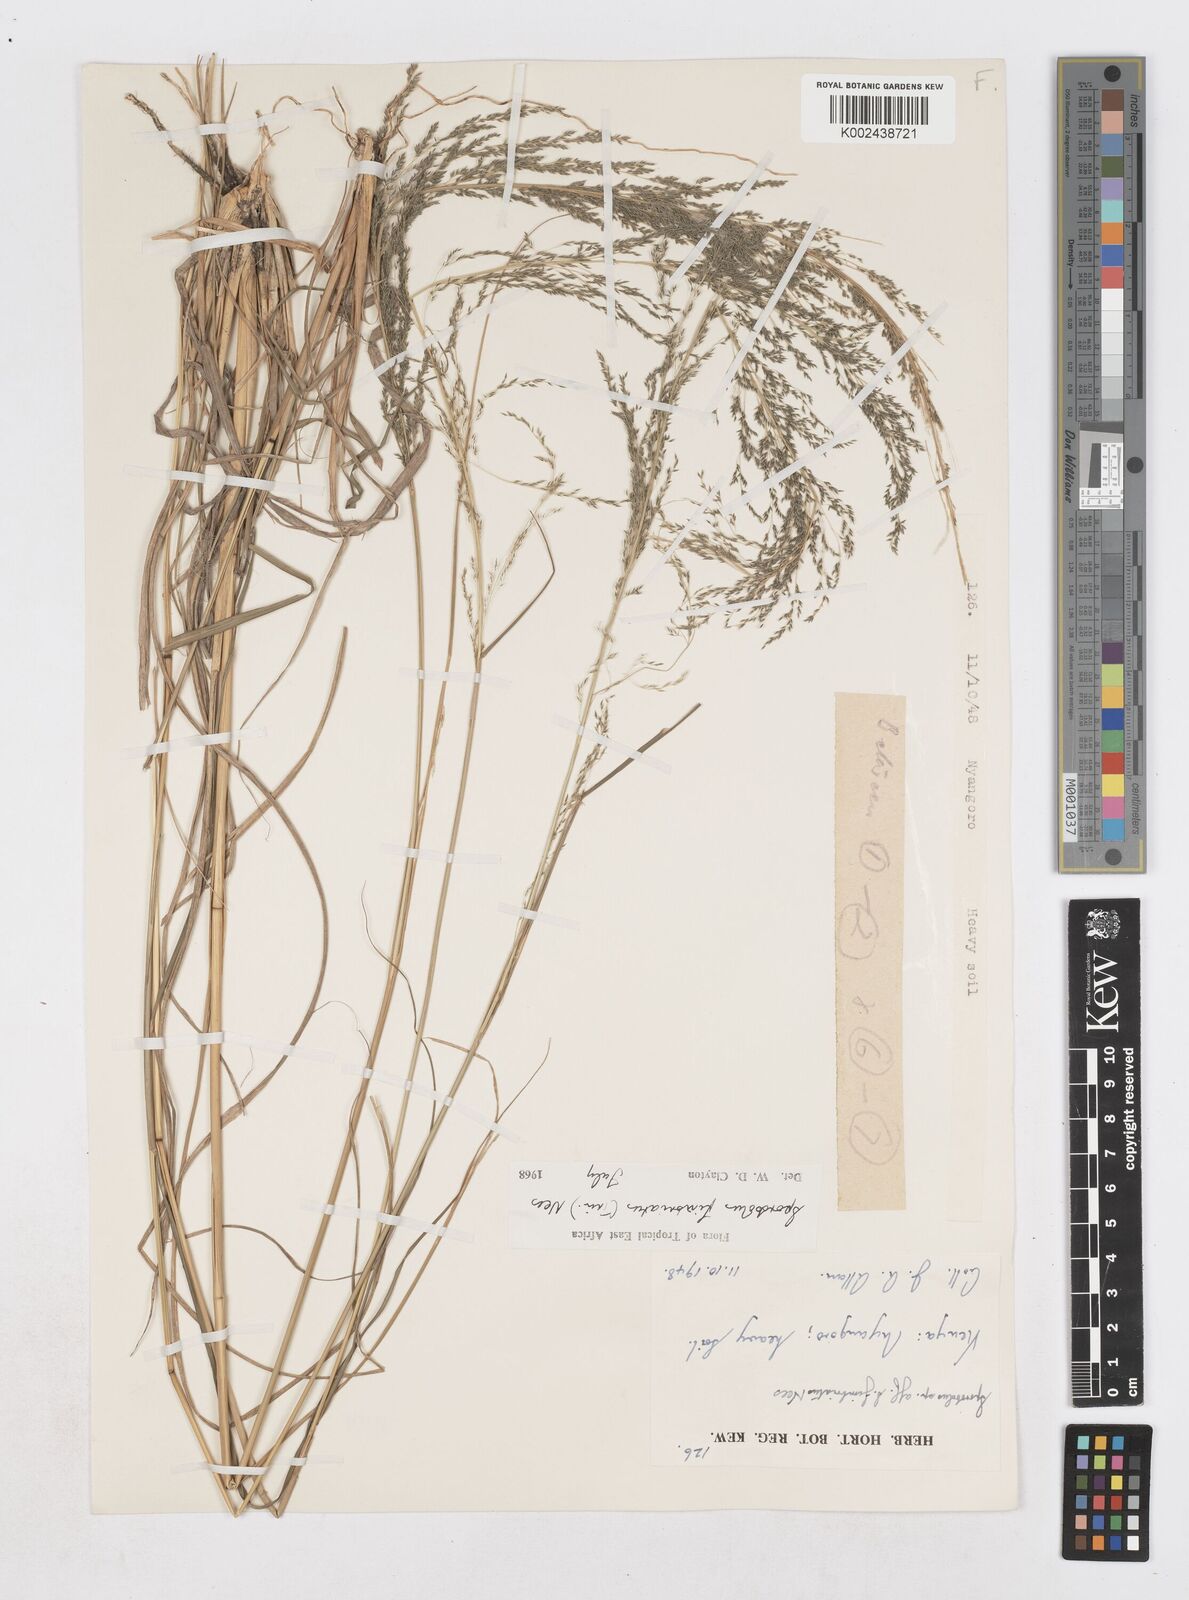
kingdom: Plantae
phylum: Tracheophyta
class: Liliopsida
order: Poales
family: Poaceae
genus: Sporobolus
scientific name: Sporobolus fimbriatus
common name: Fringed dropseed
